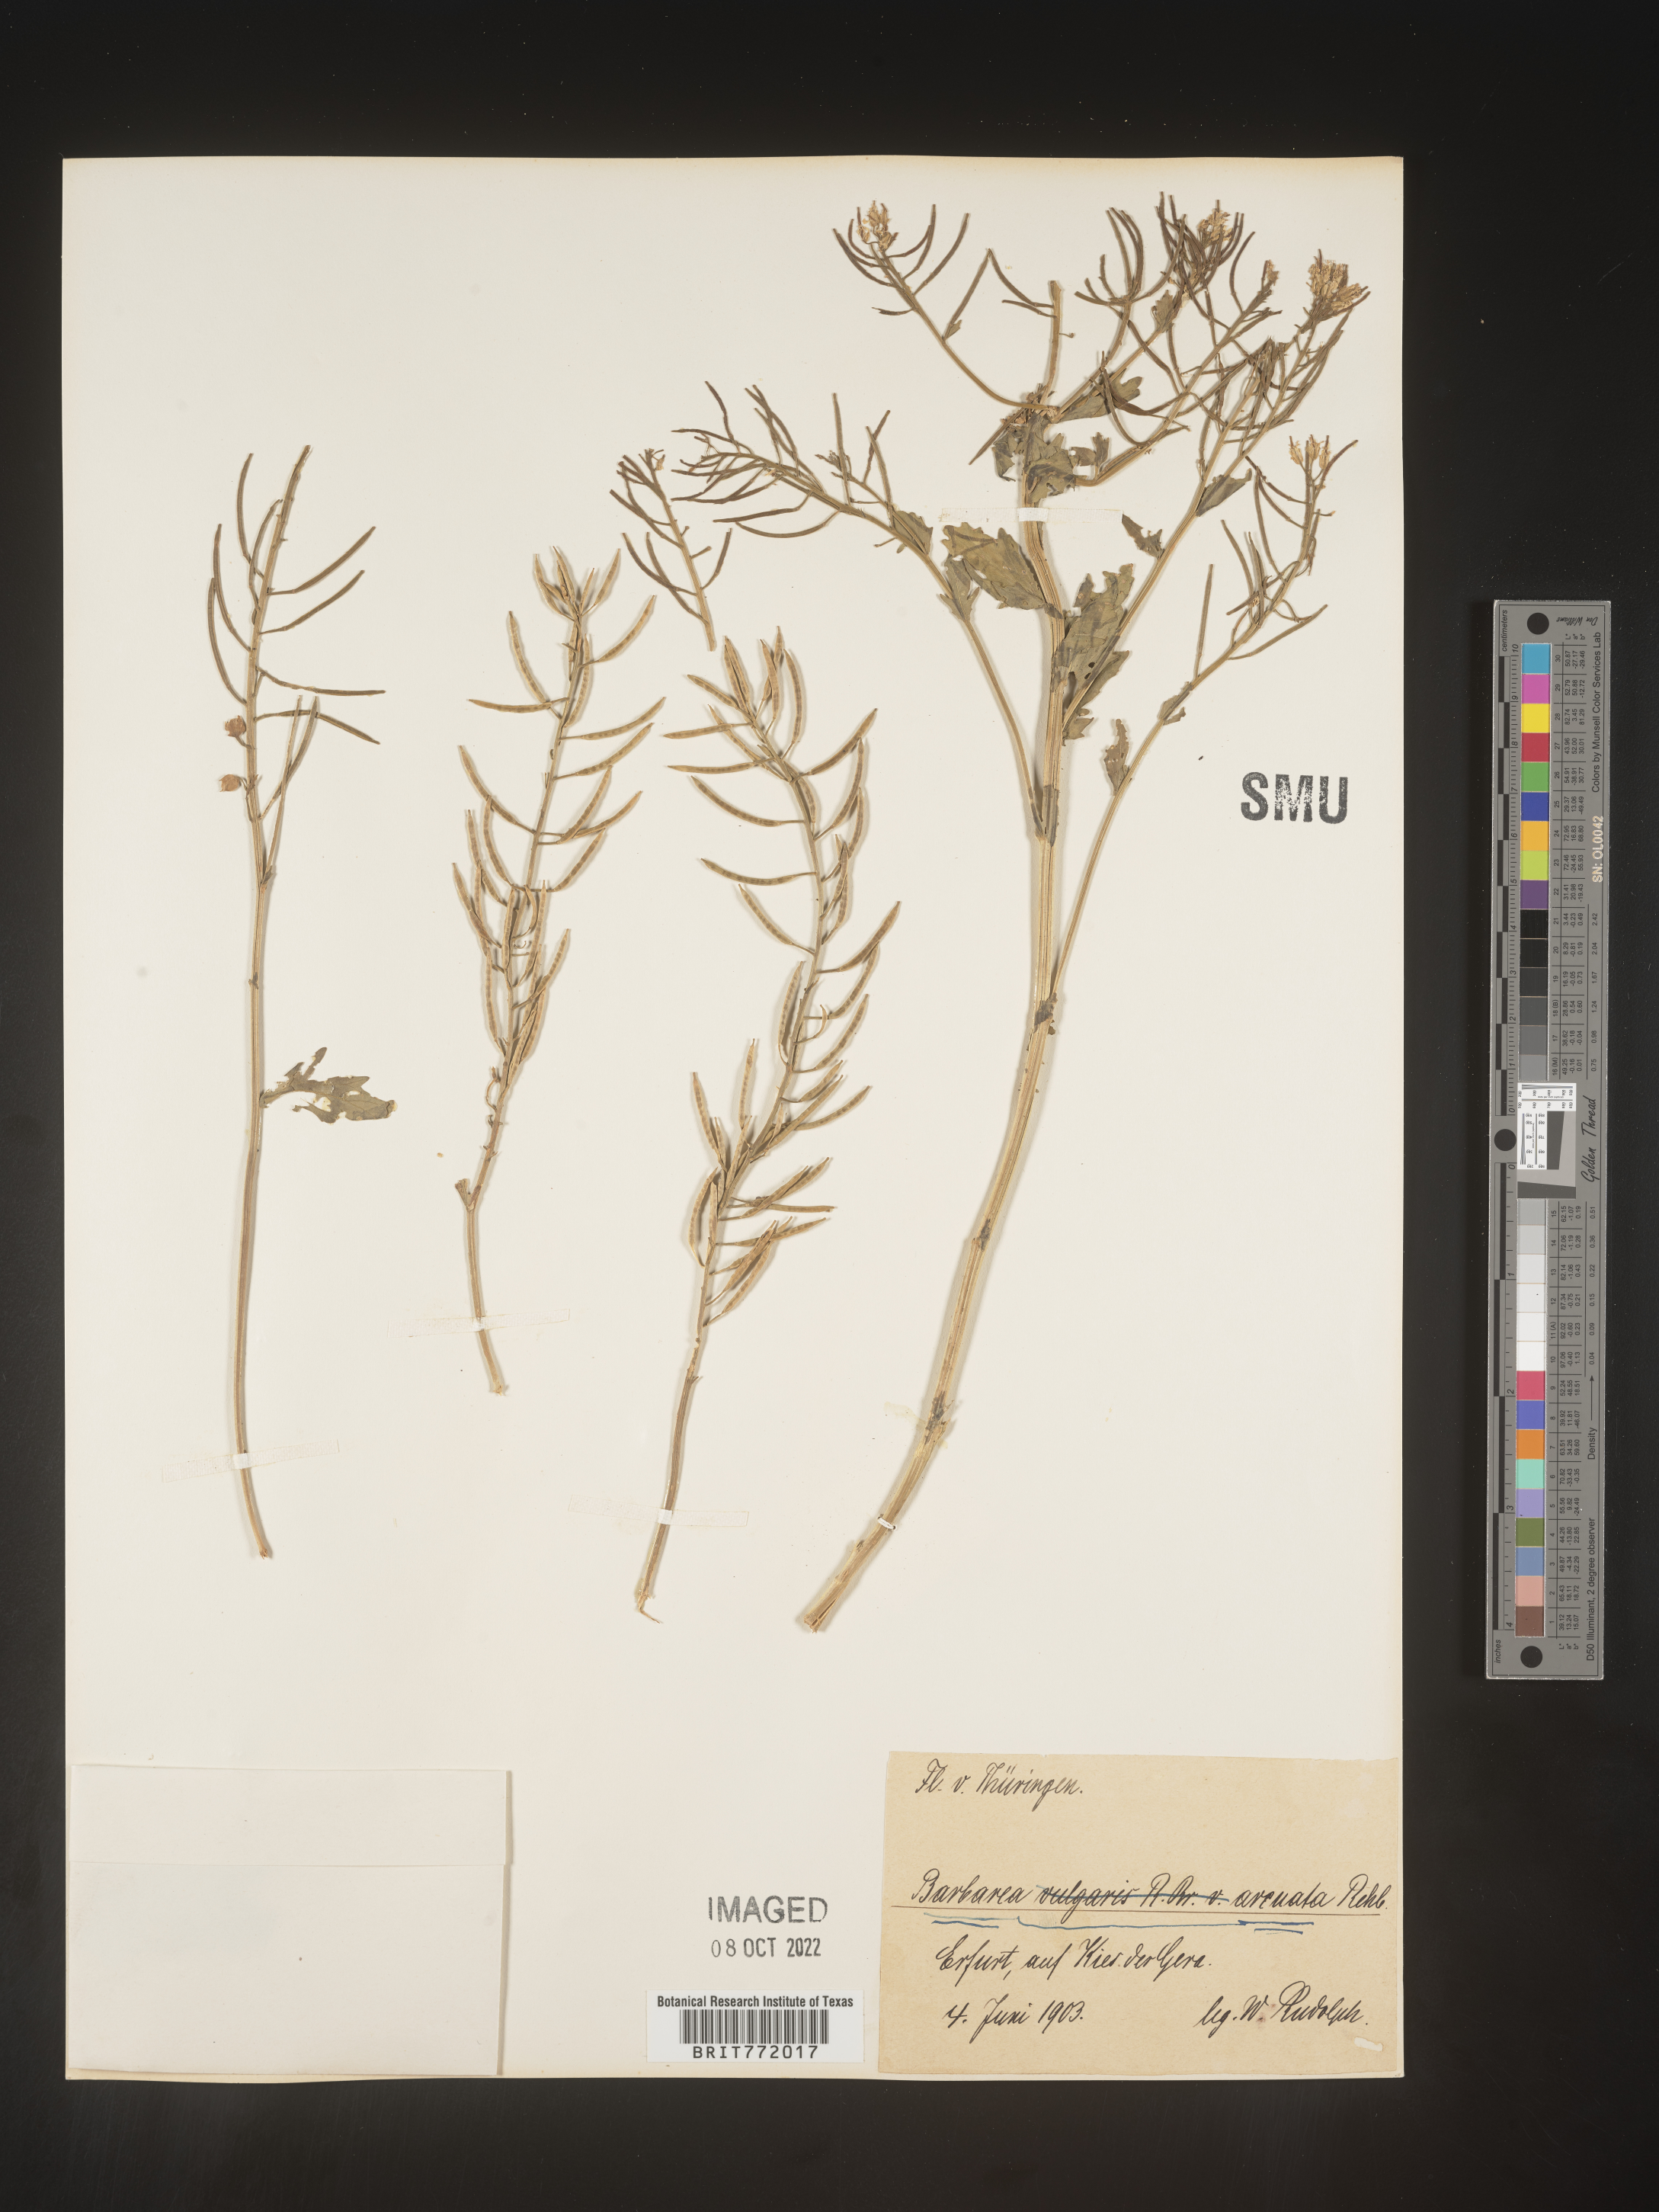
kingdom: Plantae
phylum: Tracheophyta
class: Magnoliopsida
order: Brassicales
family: Brassicaceae
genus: Barbarea
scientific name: Barbarea
